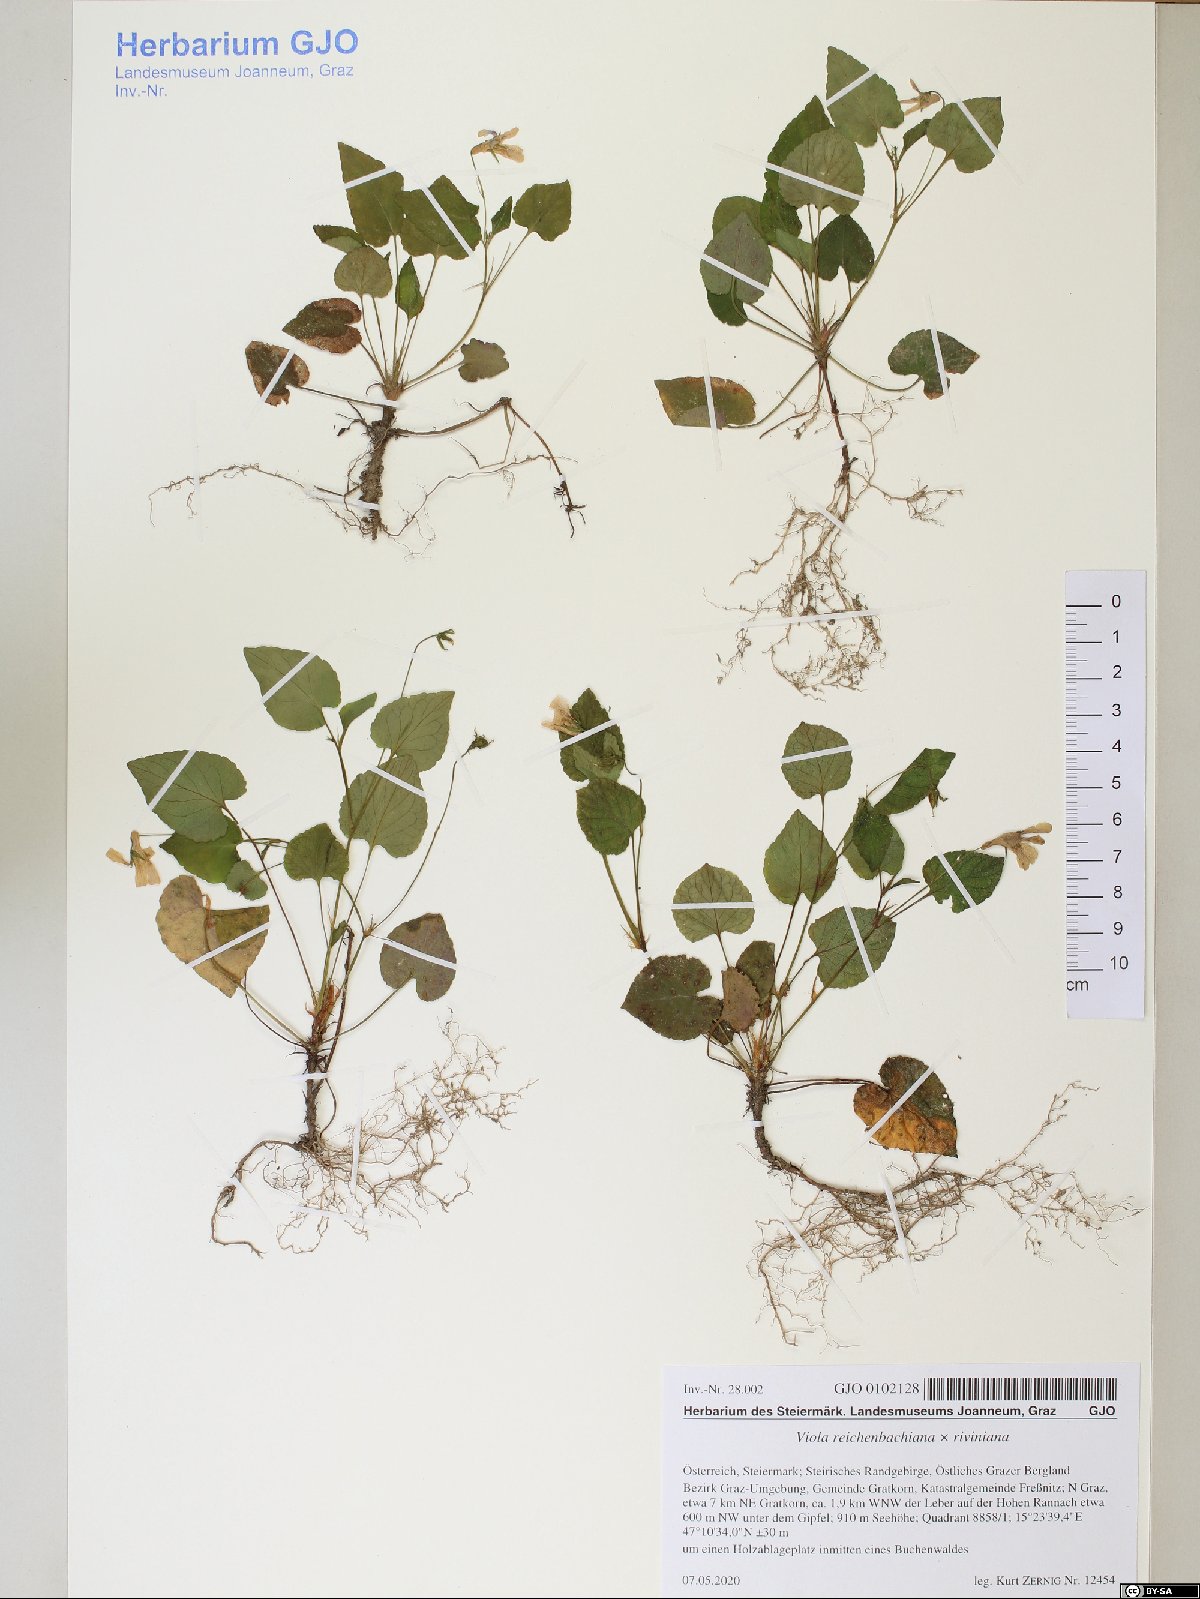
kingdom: Plantae
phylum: Tracheophyta
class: Magnoliopsida
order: Malpighiales
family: Violaceae
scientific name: Violaceae
